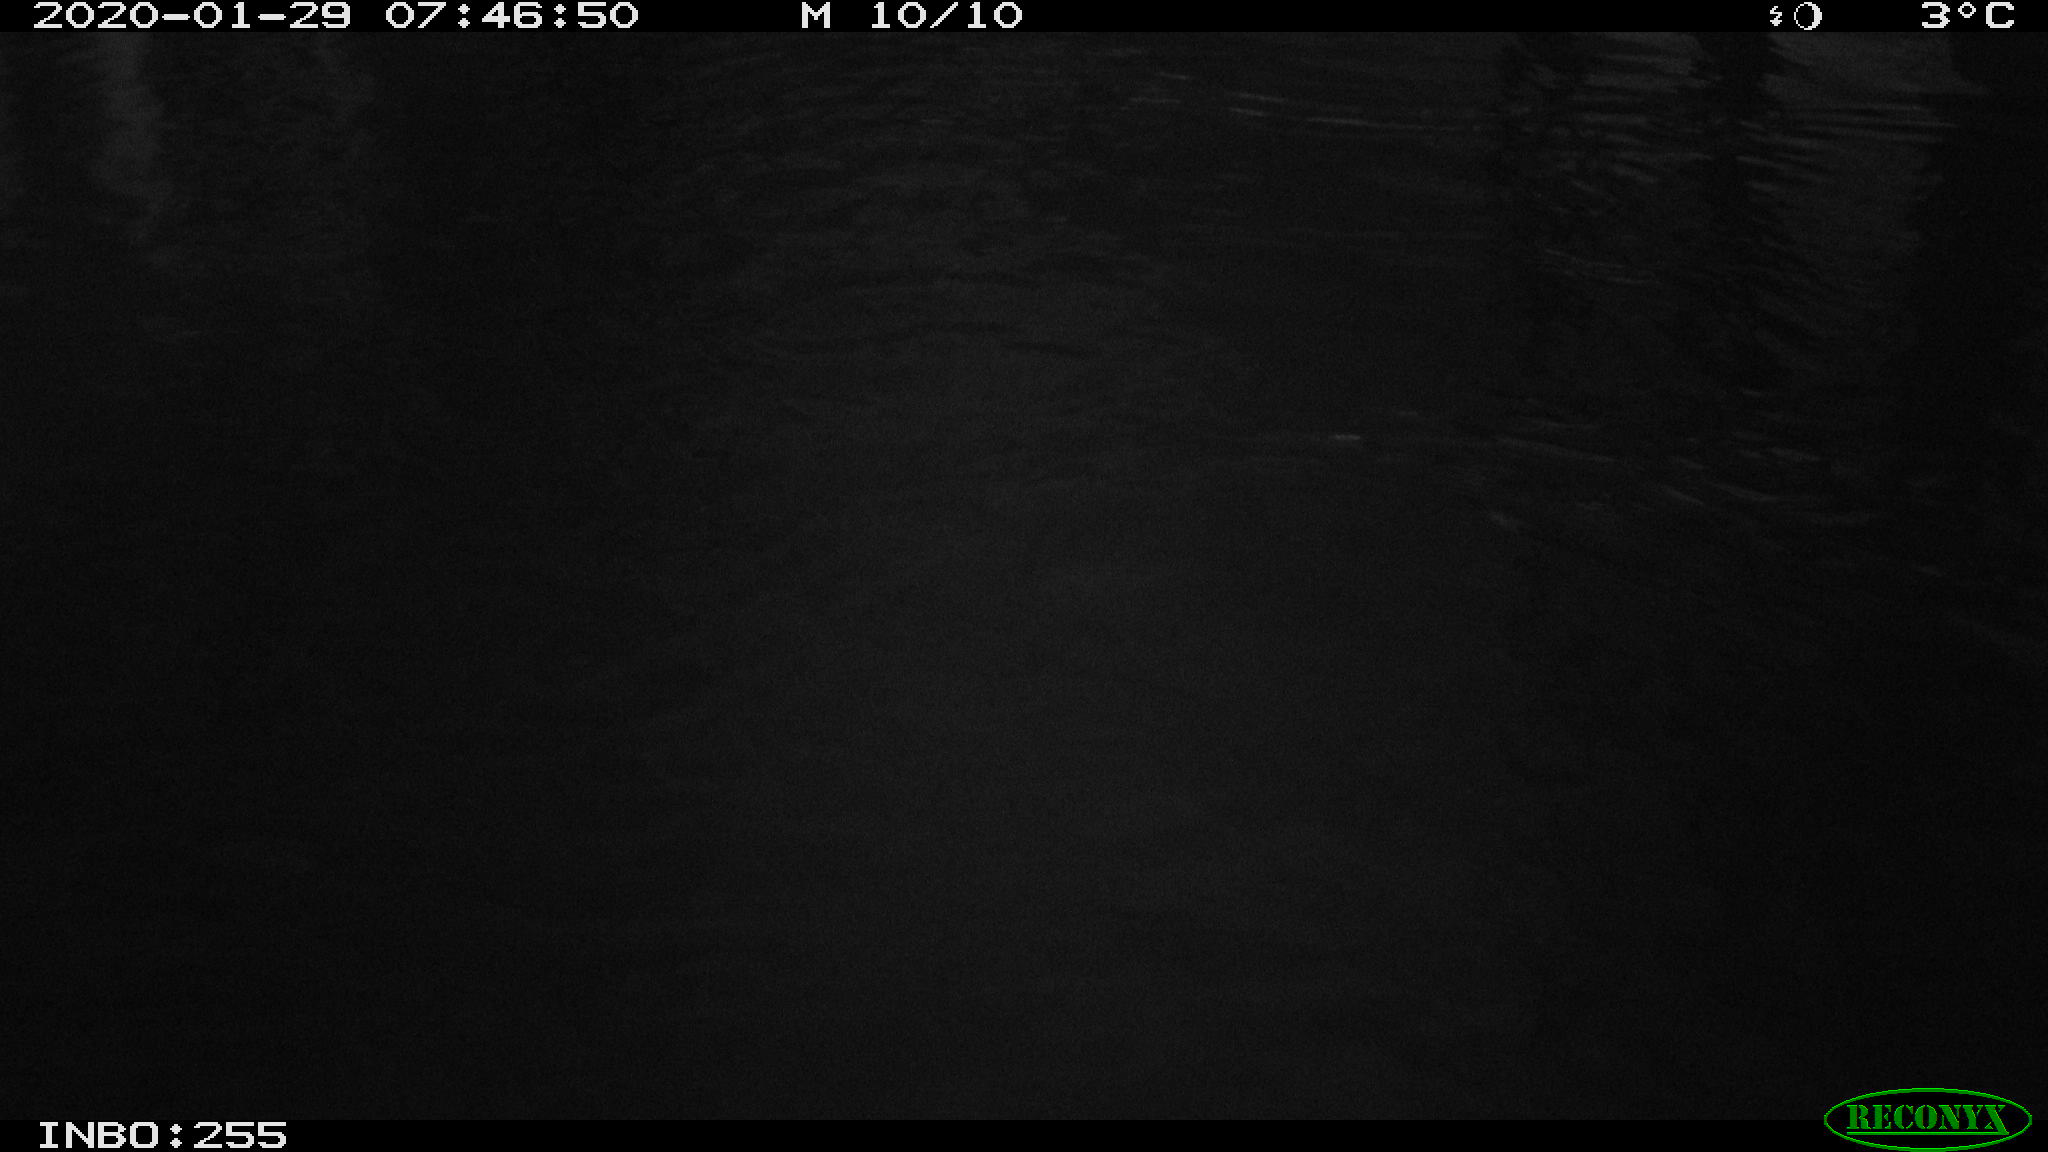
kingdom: Animalia
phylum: Chordata
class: Aves
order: Gruiformes
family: Rallidae
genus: Gallinula
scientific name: Gallinula chloropus
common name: Common moorhen
